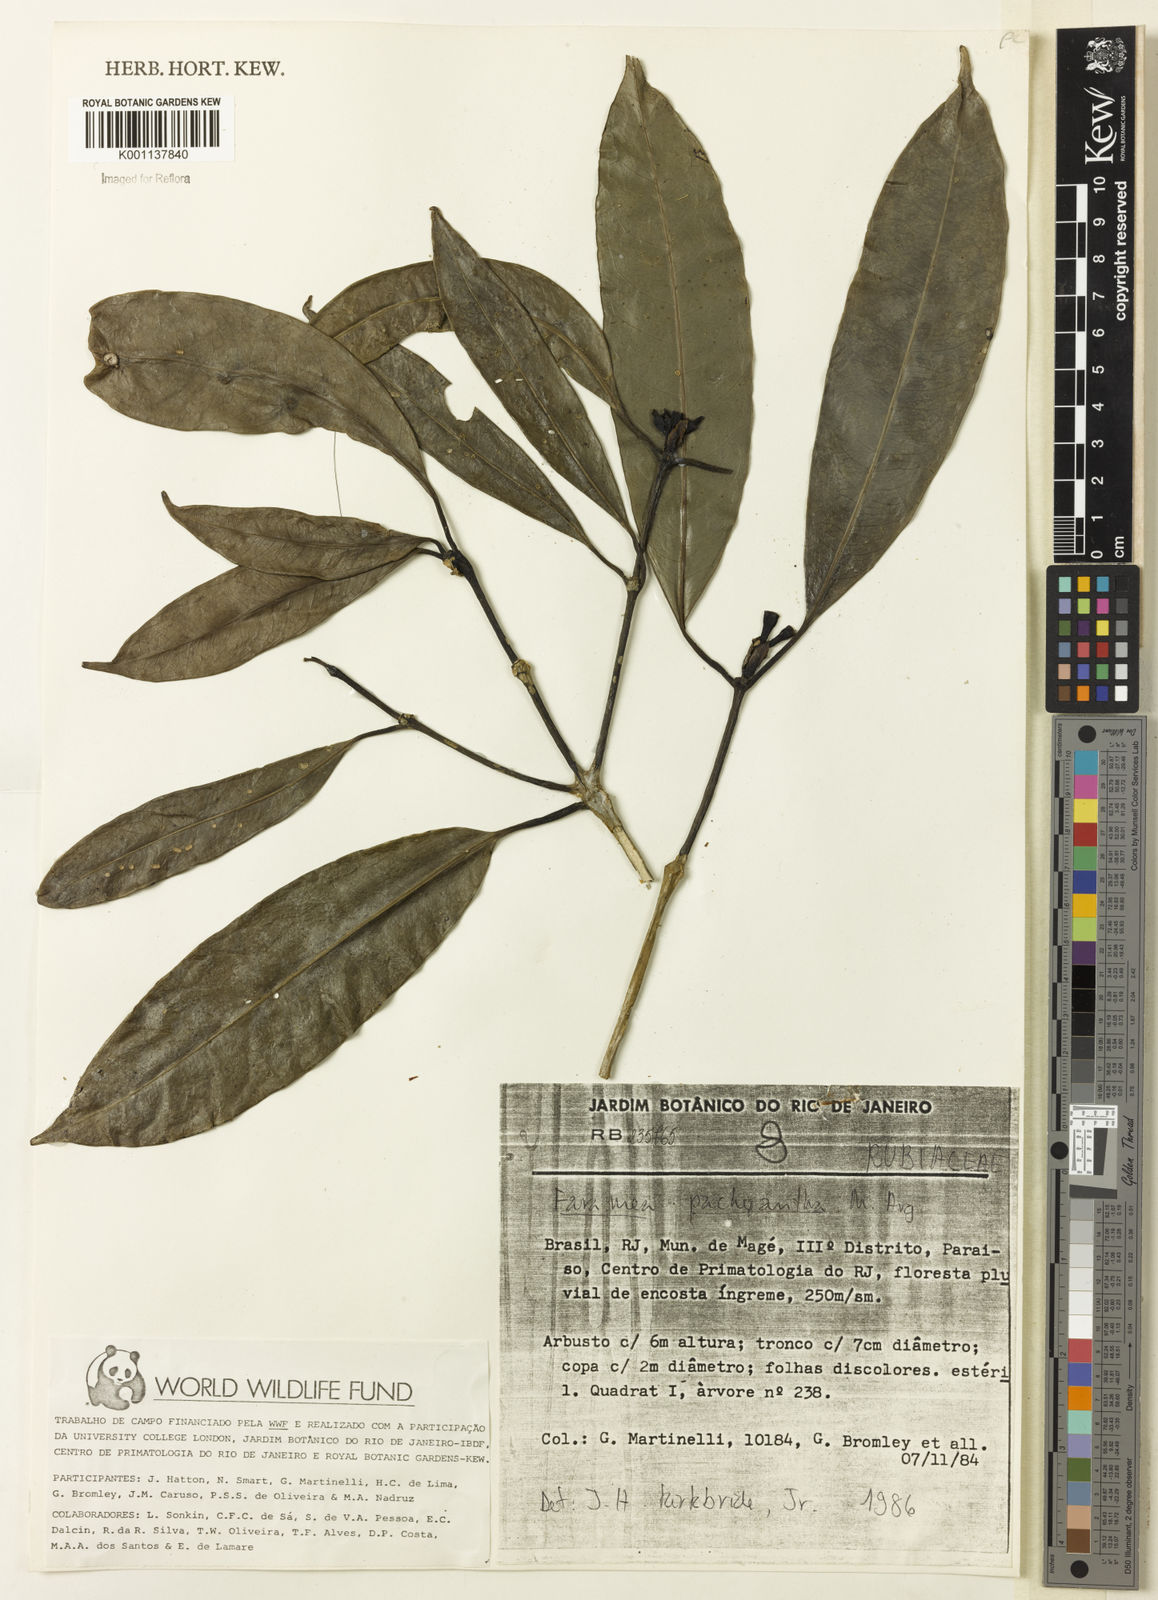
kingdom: Plantae
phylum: Tracheophyta
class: Magnoliopsida
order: Gentianales
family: Rubiaceae
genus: Faramea
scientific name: Faramea
